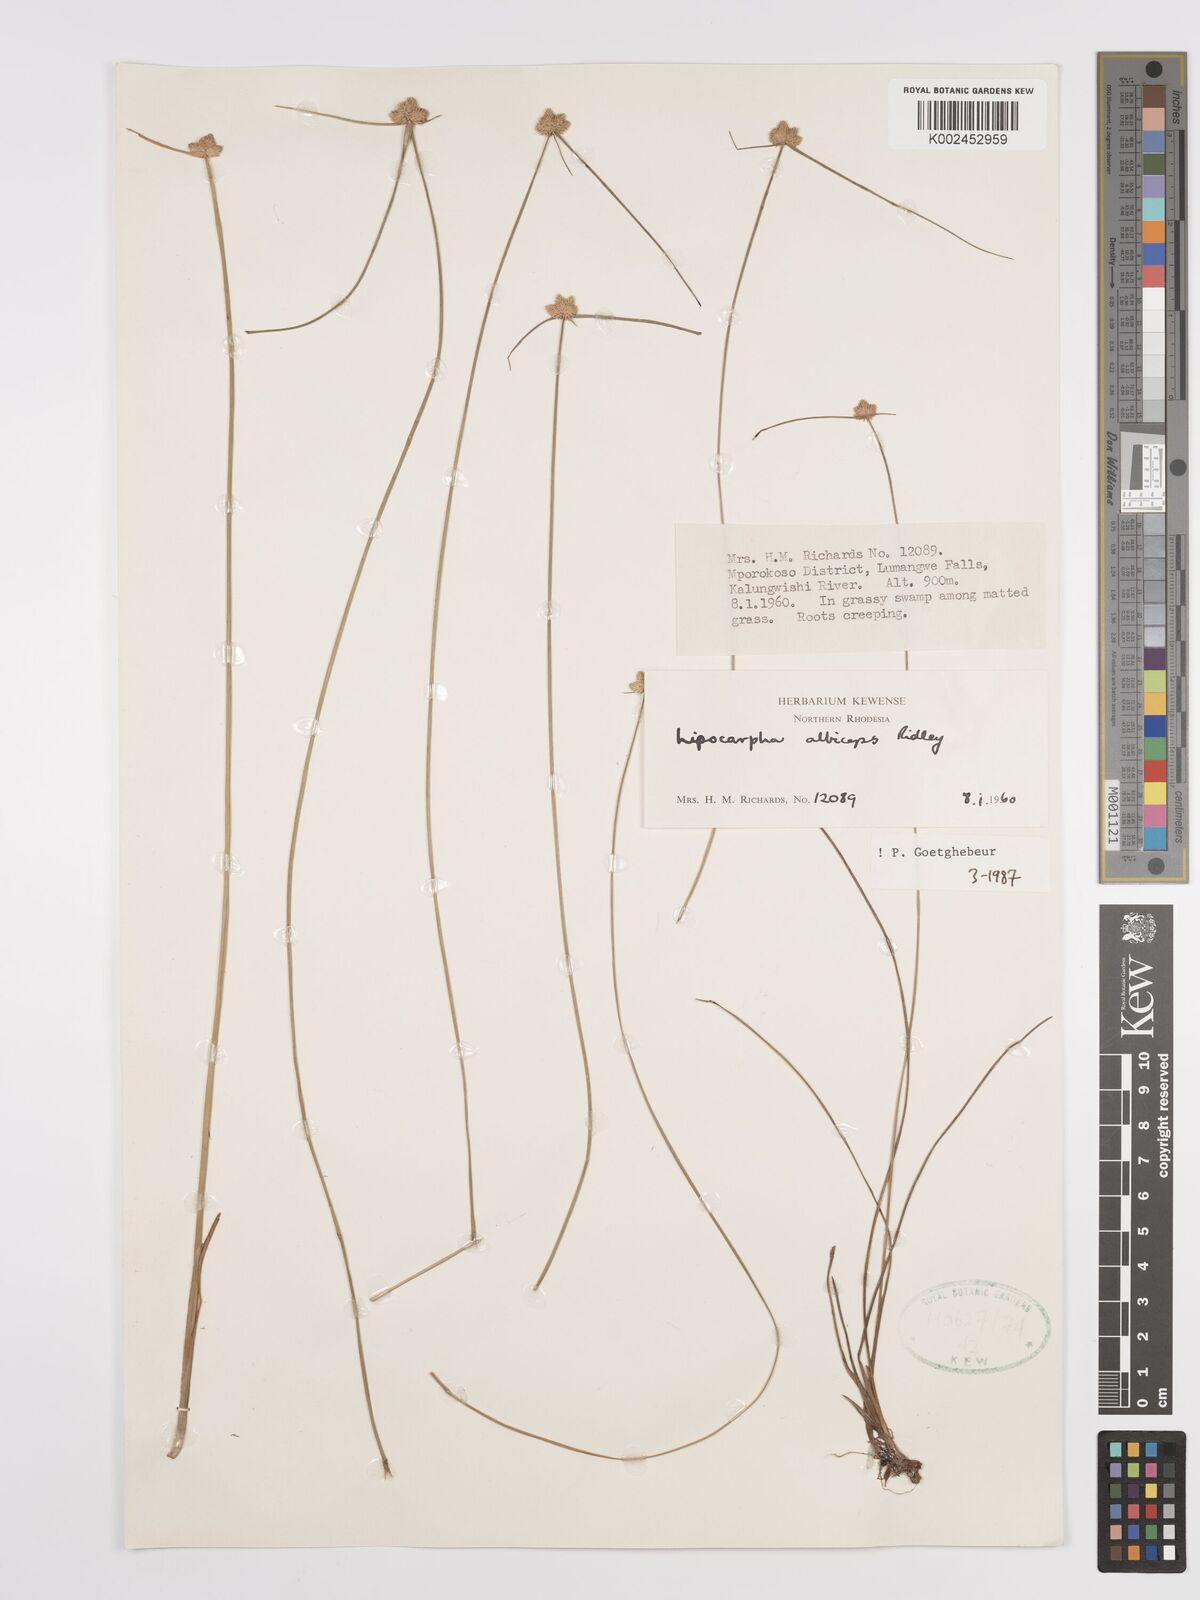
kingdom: Plantae
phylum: Tracheophyta
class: Liliopsida
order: Poales
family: Cyperaceae
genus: Cyperus
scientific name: Cyperus albiceps
